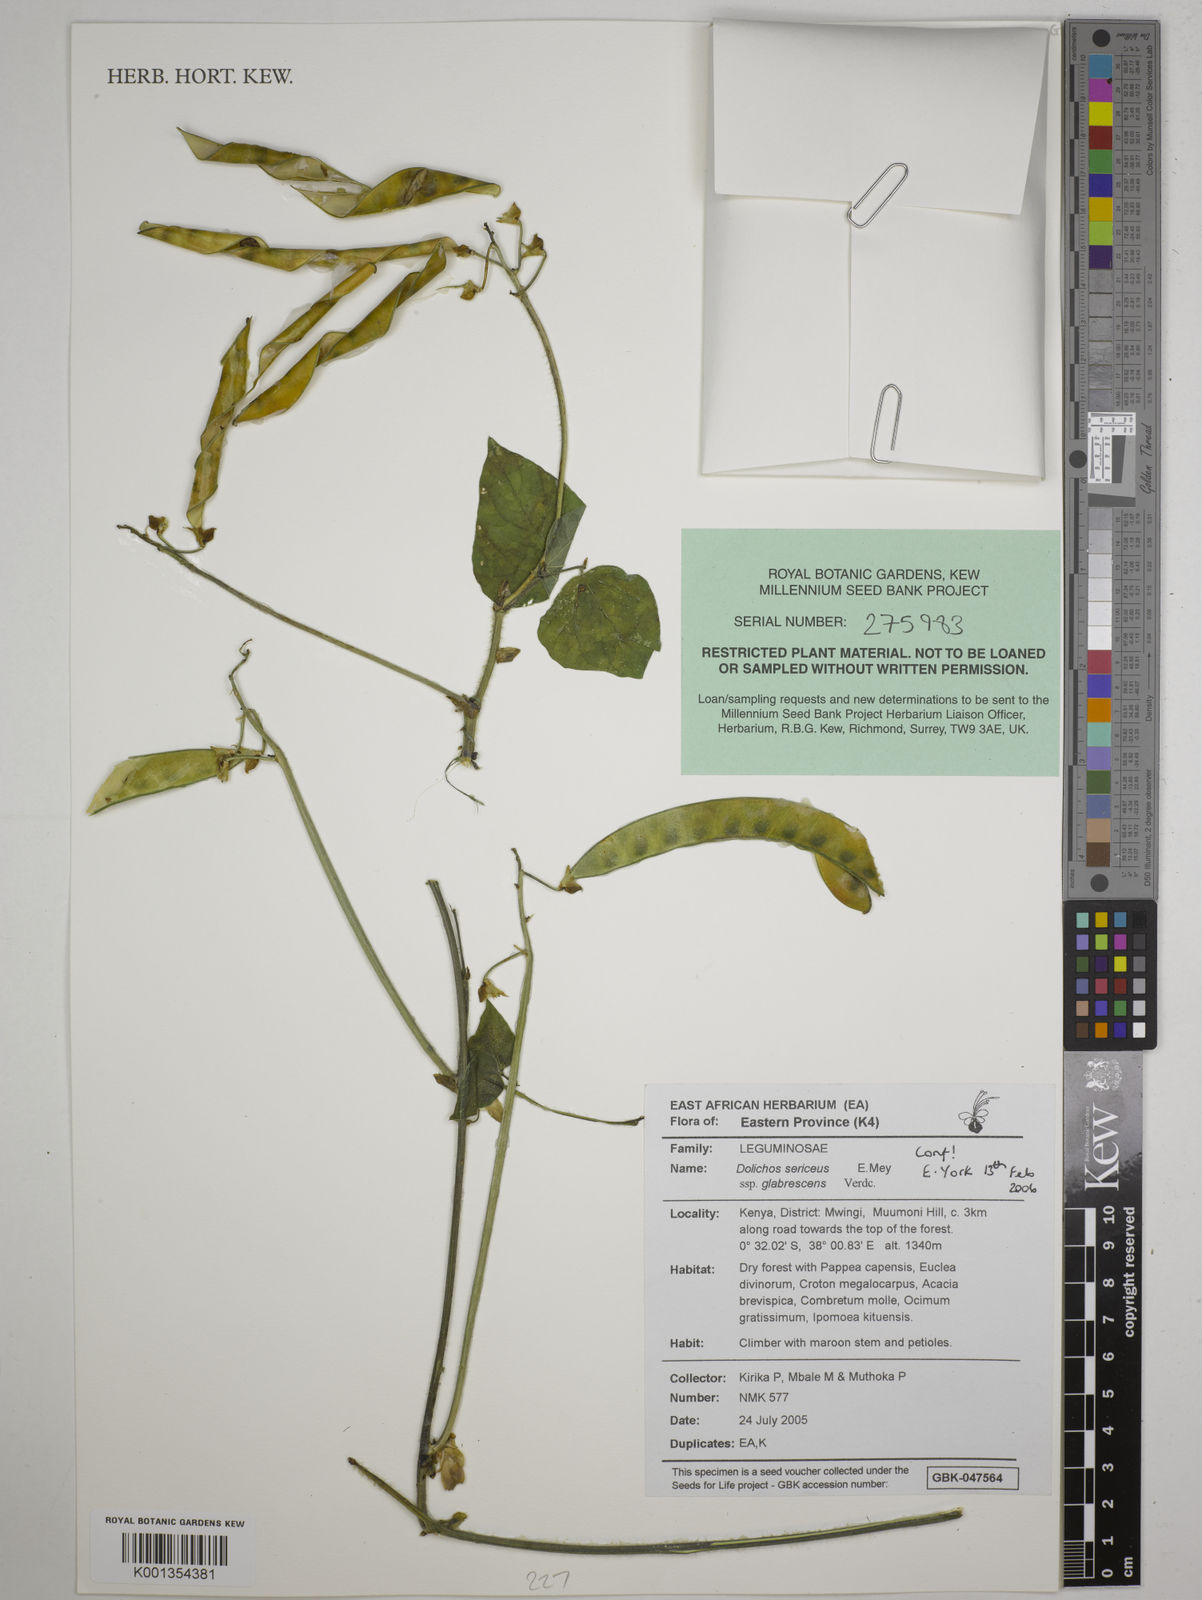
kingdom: Plantae
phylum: Tracheophyta
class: Magnoliopsida
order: Fabales
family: Fabaceae
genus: Dolichos
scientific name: Dolichos sericeus
